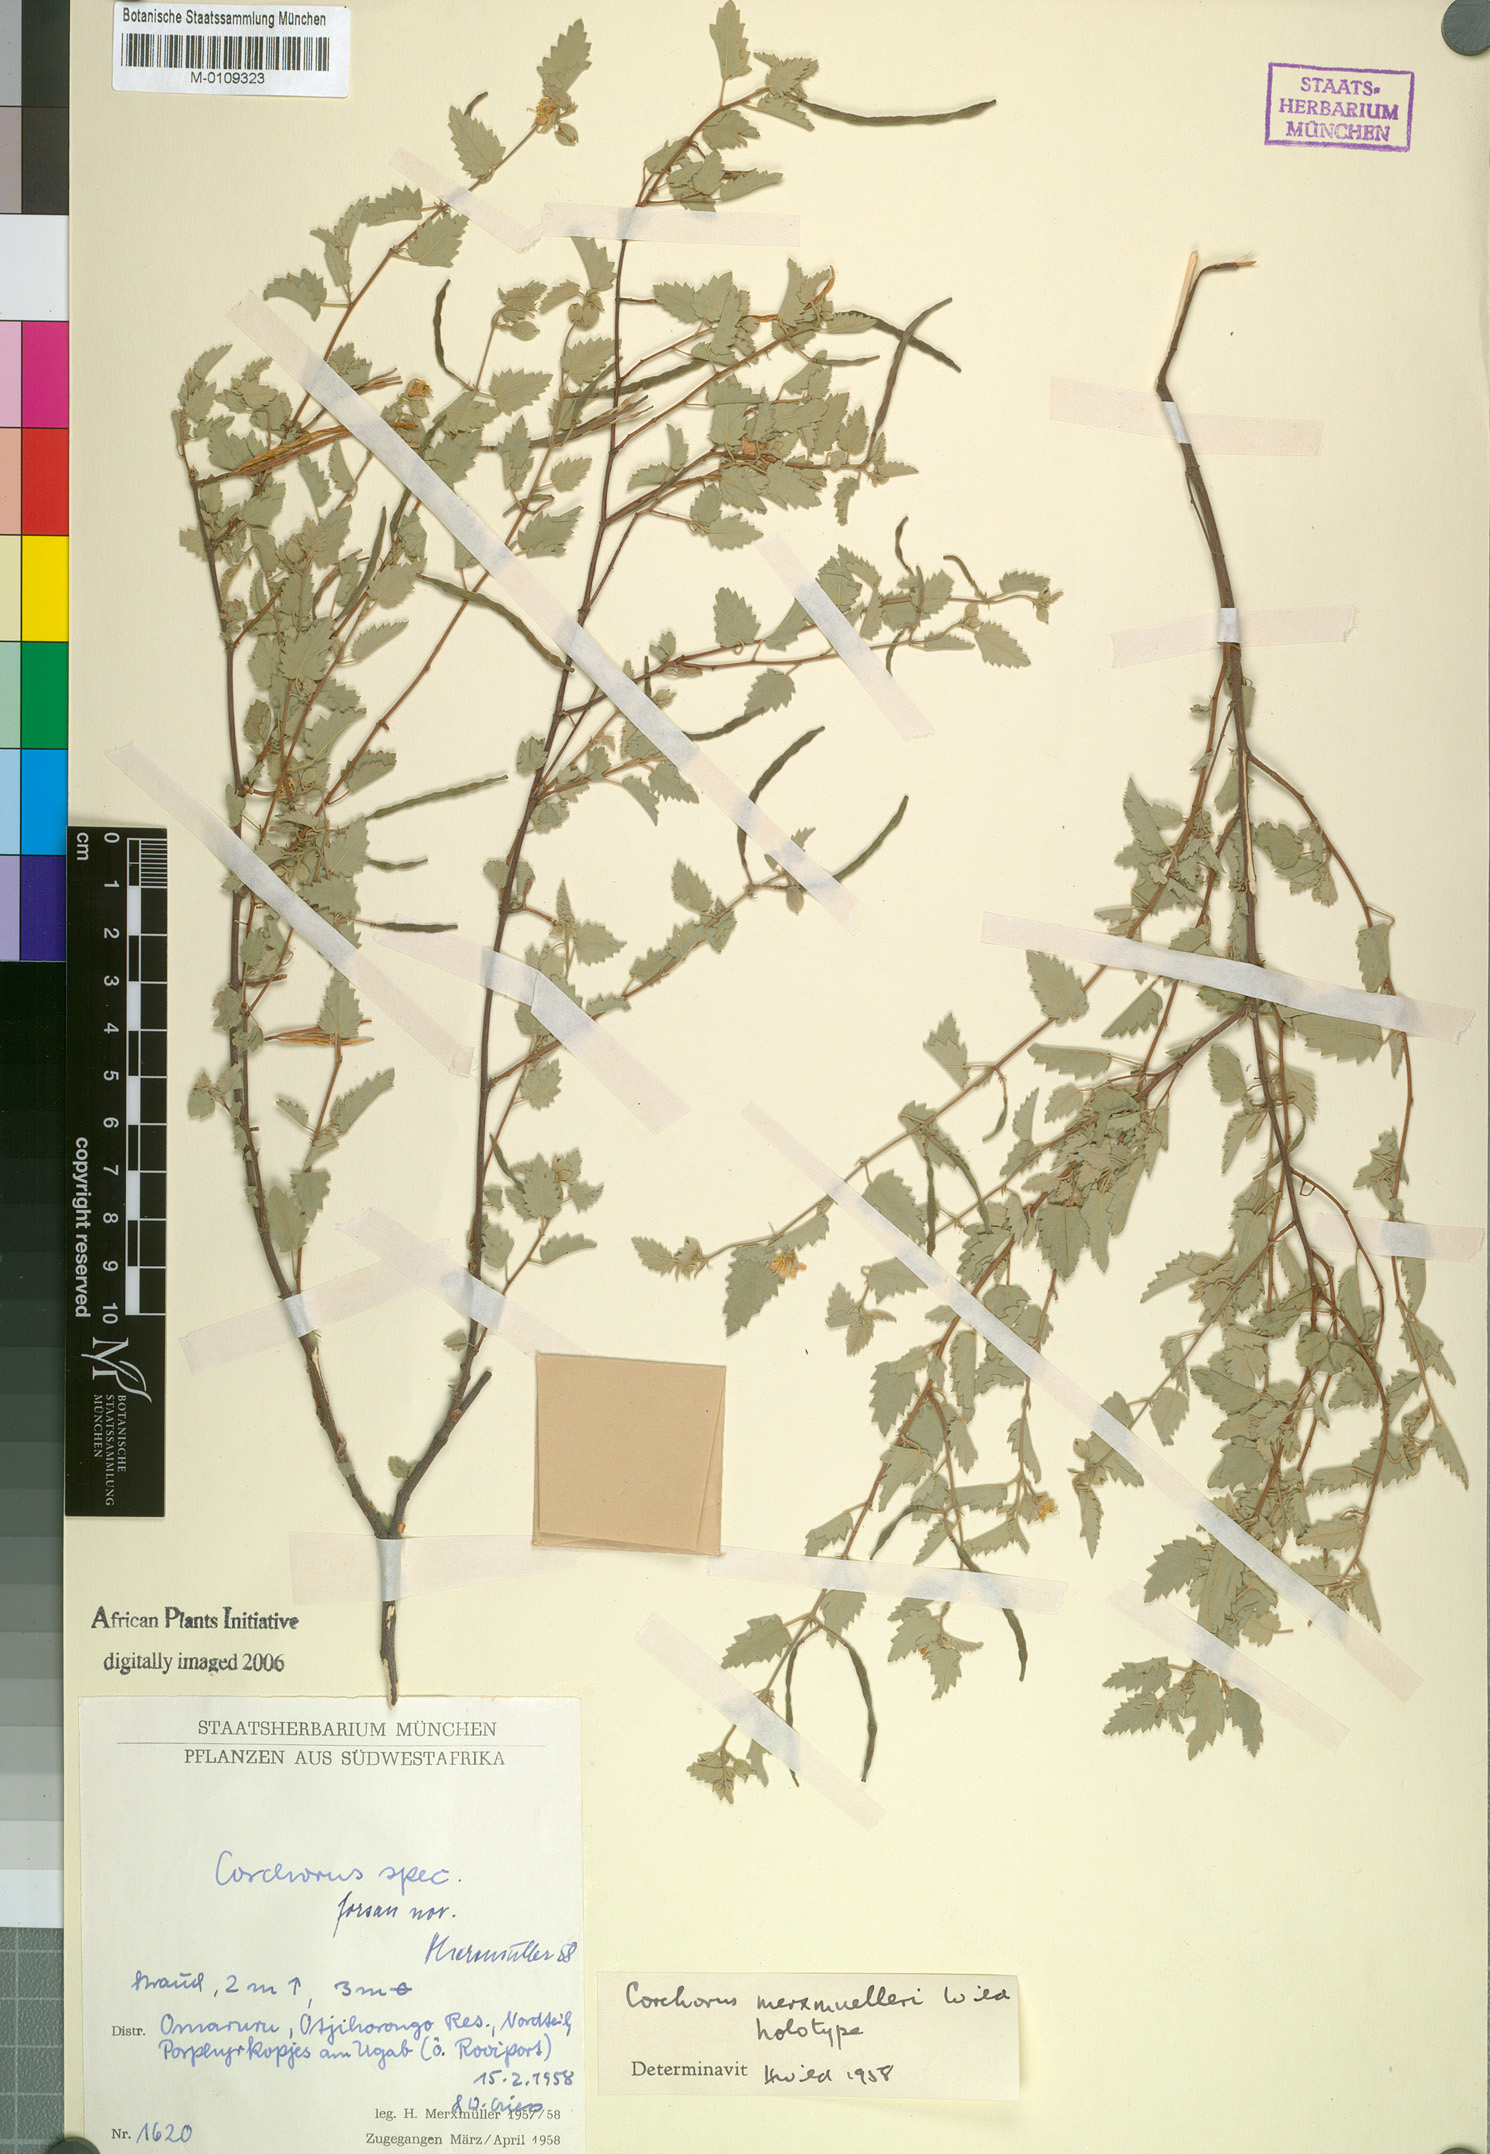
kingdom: Plantae
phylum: Tracheophyta
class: Magnoliopsida
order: Malvales
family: Malvaceae
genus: Corchorus
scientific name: Corchorus merxmuelleri
